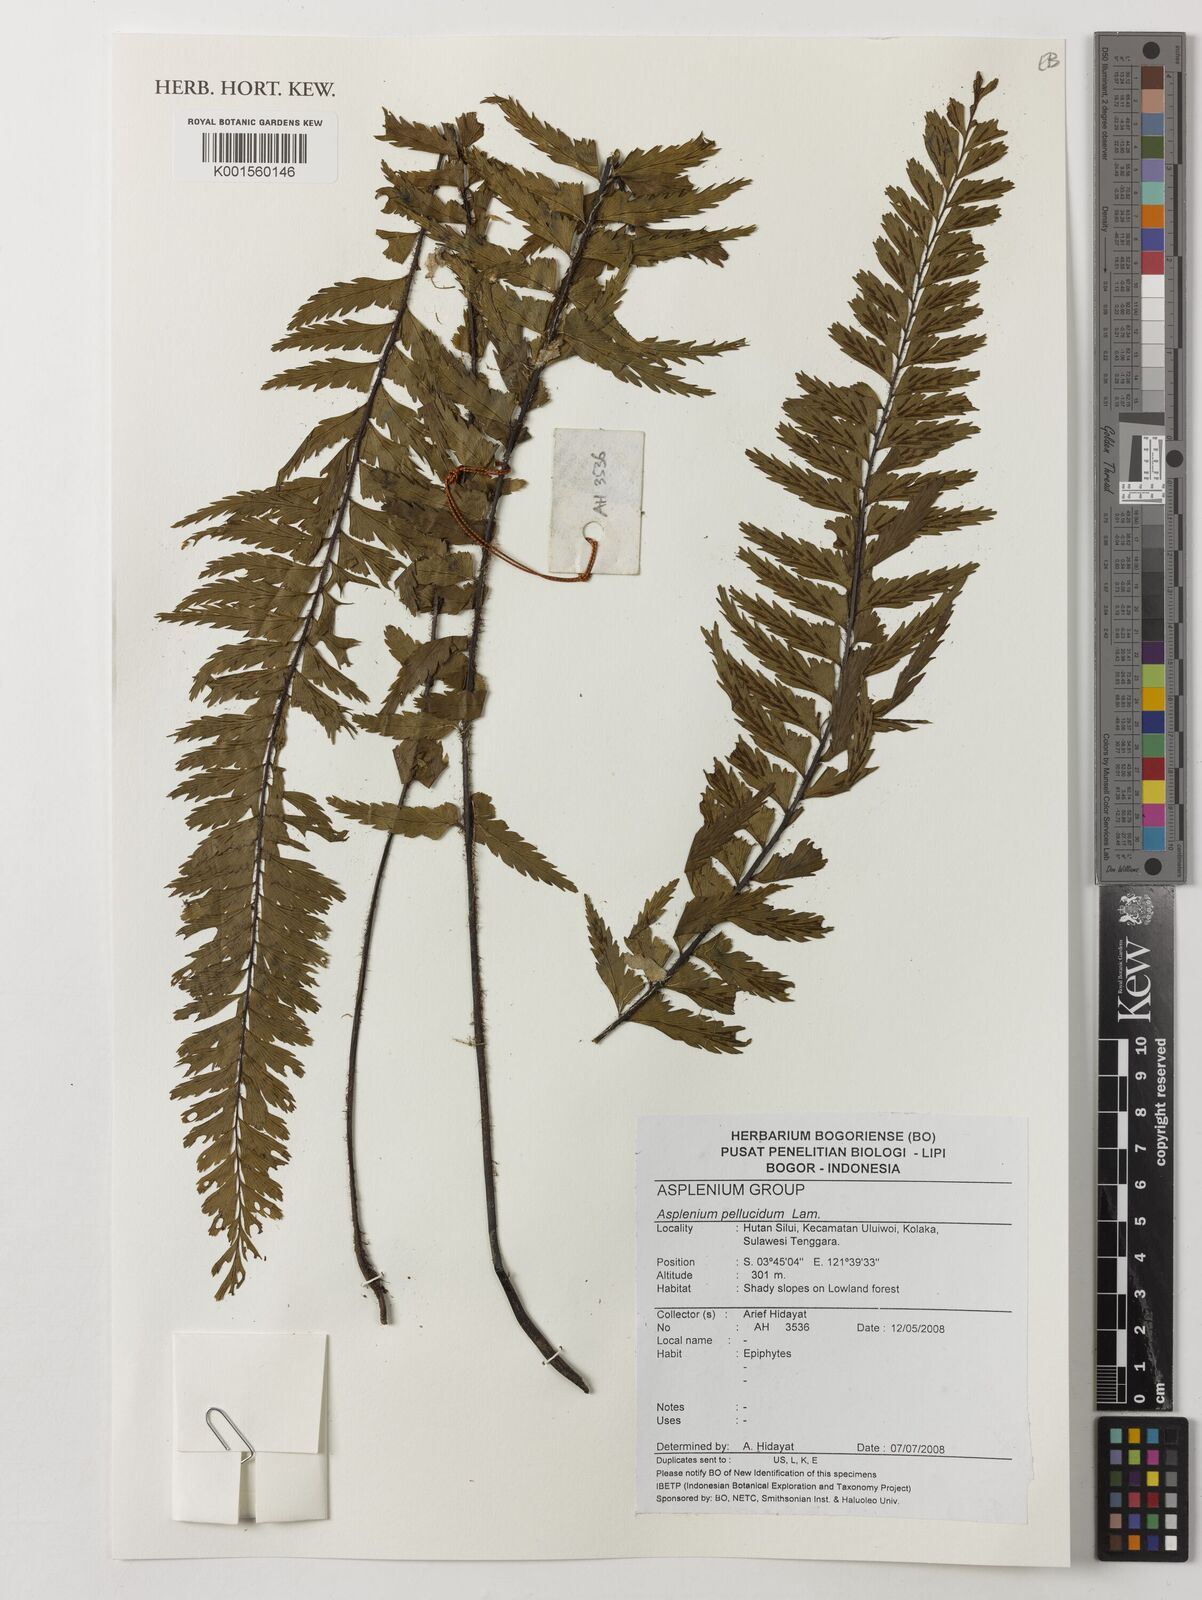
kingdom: Plantae
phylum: Tracheophyta
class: Polypodiopsida
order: Polypodiales
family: Aspleniaceae
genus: Asplenium
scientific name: Asplenium pellucidum
